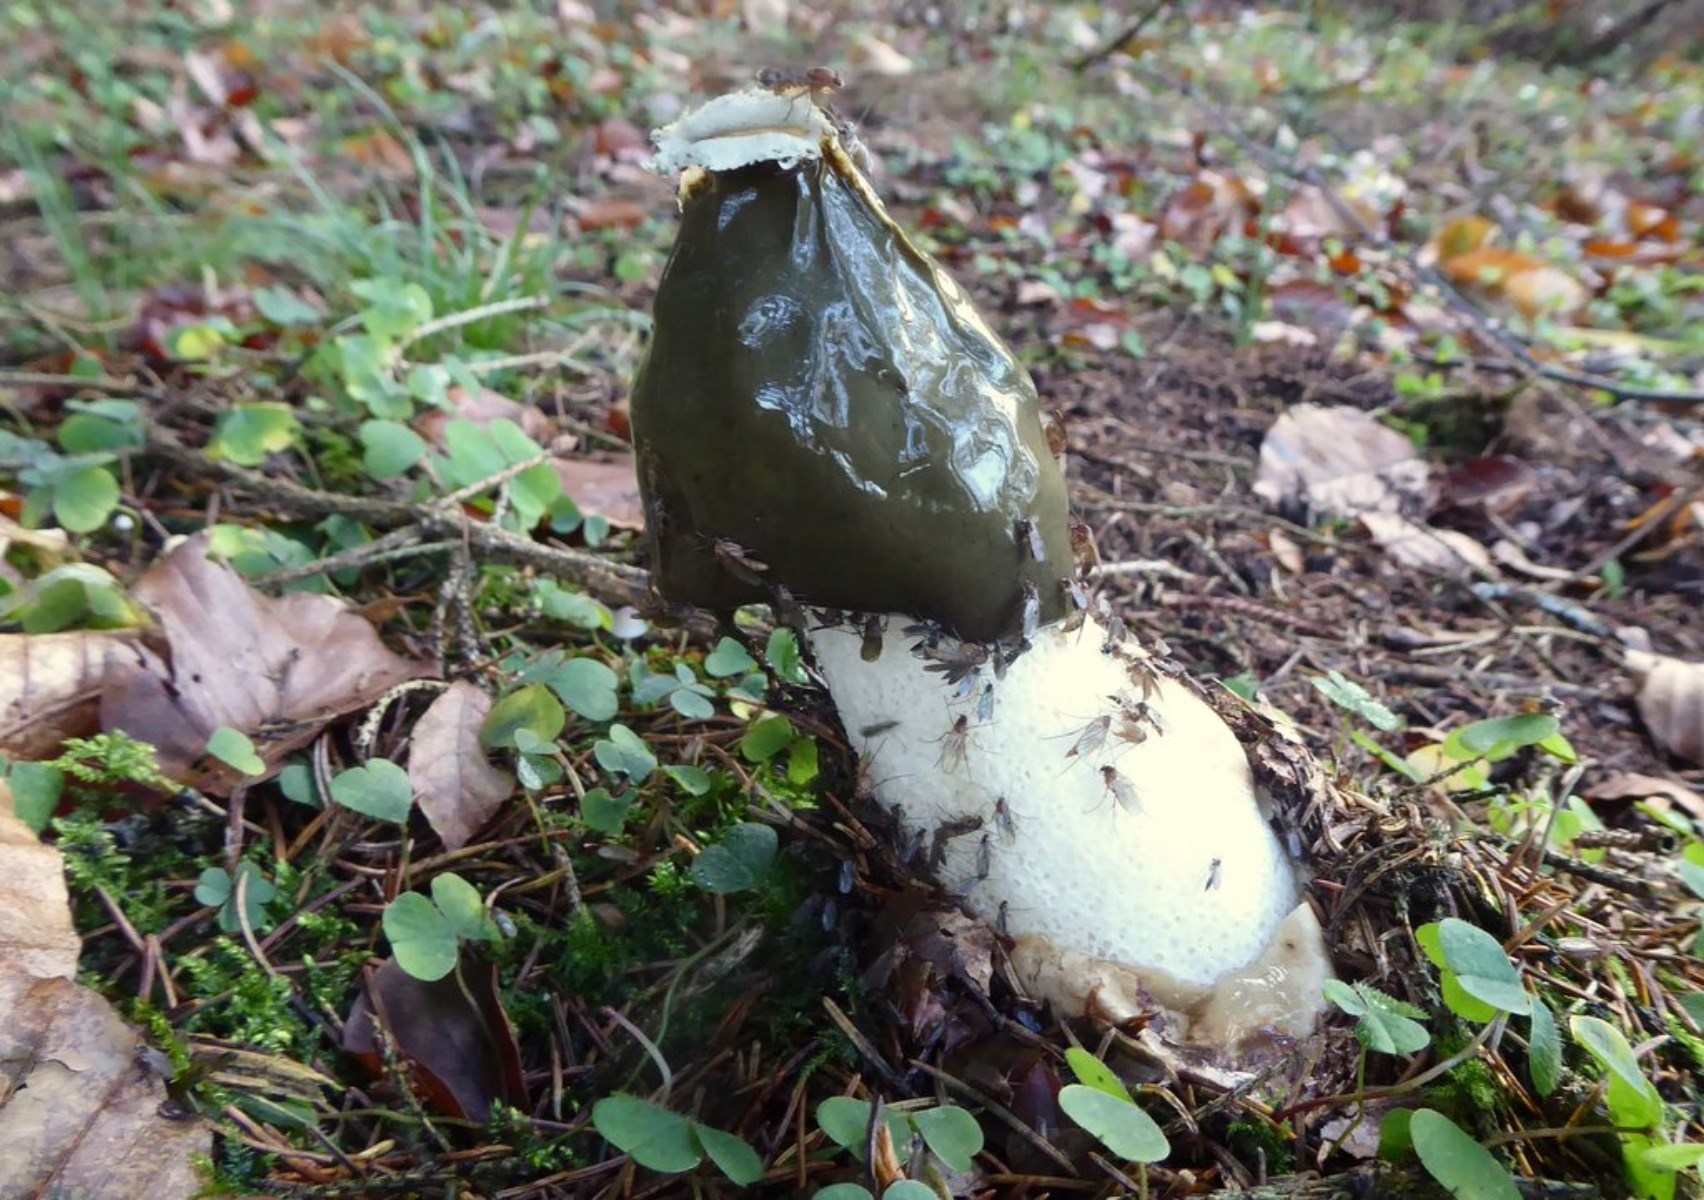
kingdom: Fungi
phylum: Basidiomycota
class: Agaricomycetes
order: Phallales
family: Phallaceae
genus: Phallus
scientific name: Phallus impudicus
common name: almindelig stinksvamp
